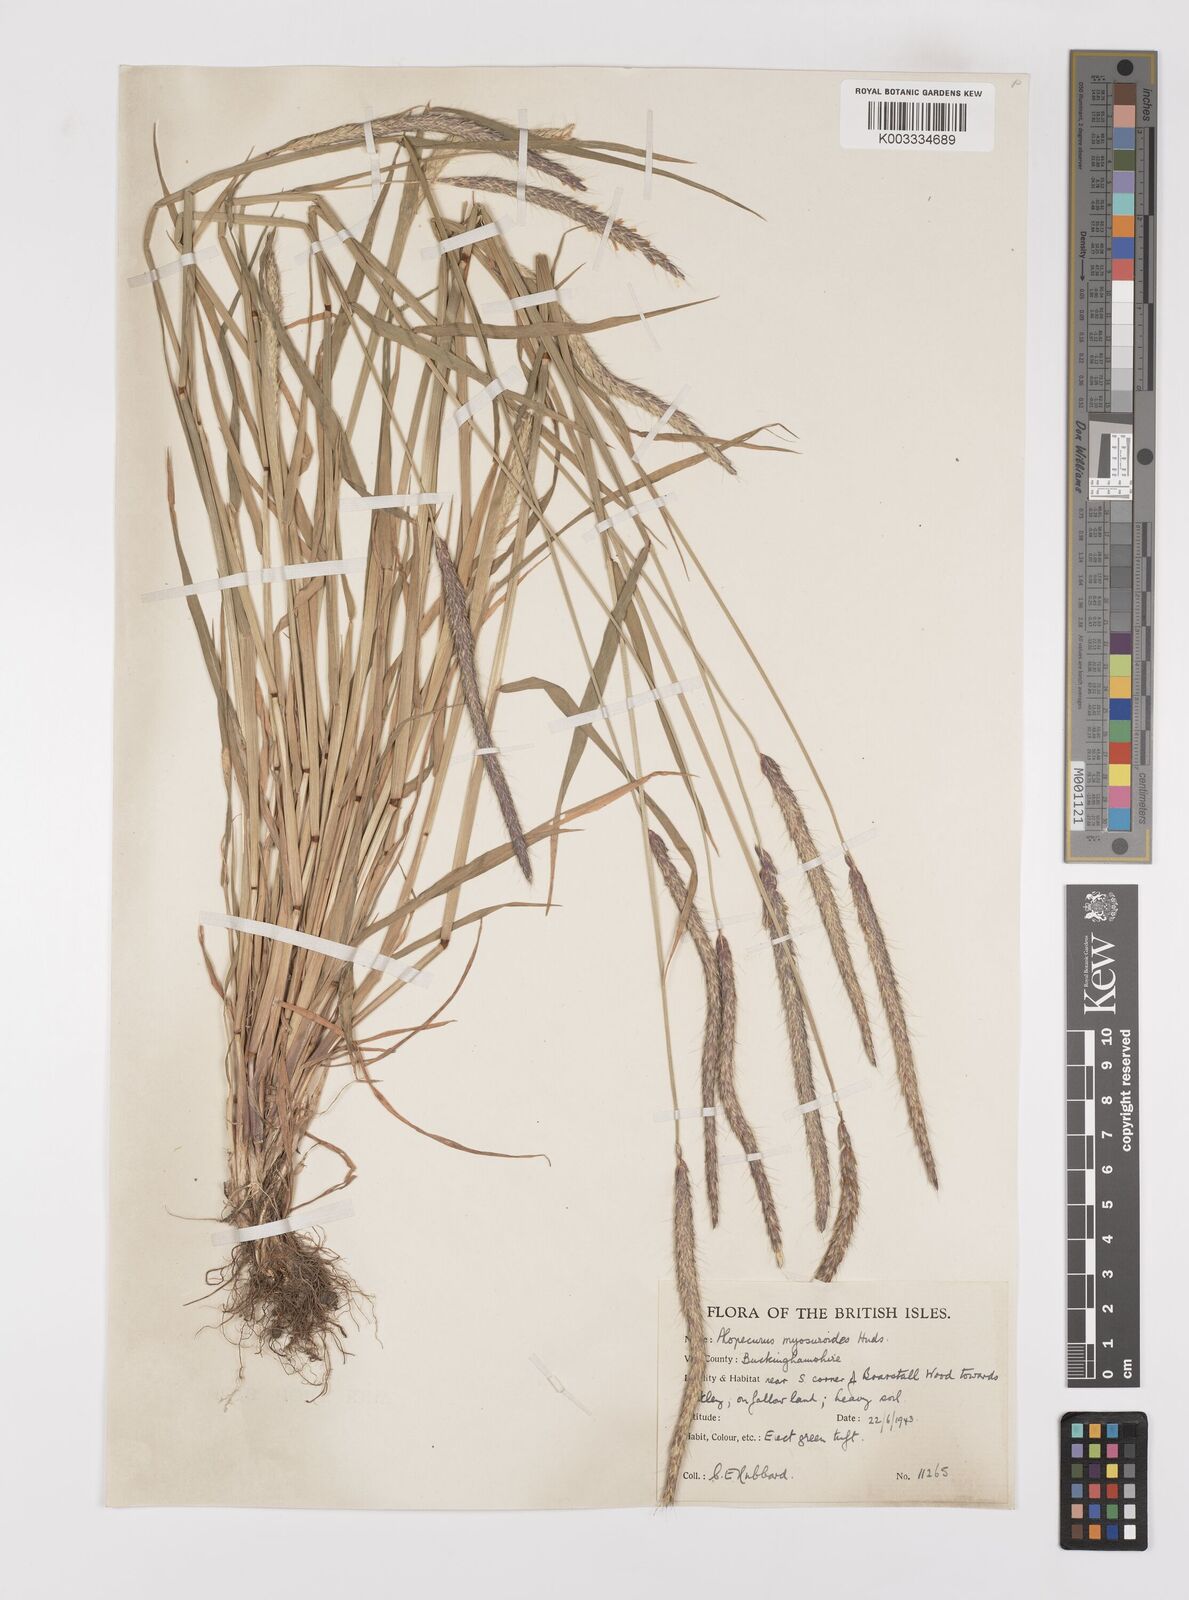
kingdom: Plantae
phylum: Tracheophyta
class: Liliopsida
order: Poales
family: Poaceae
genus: Alopecurus
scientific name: Alopecurus myosuroides
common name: Black-grass
